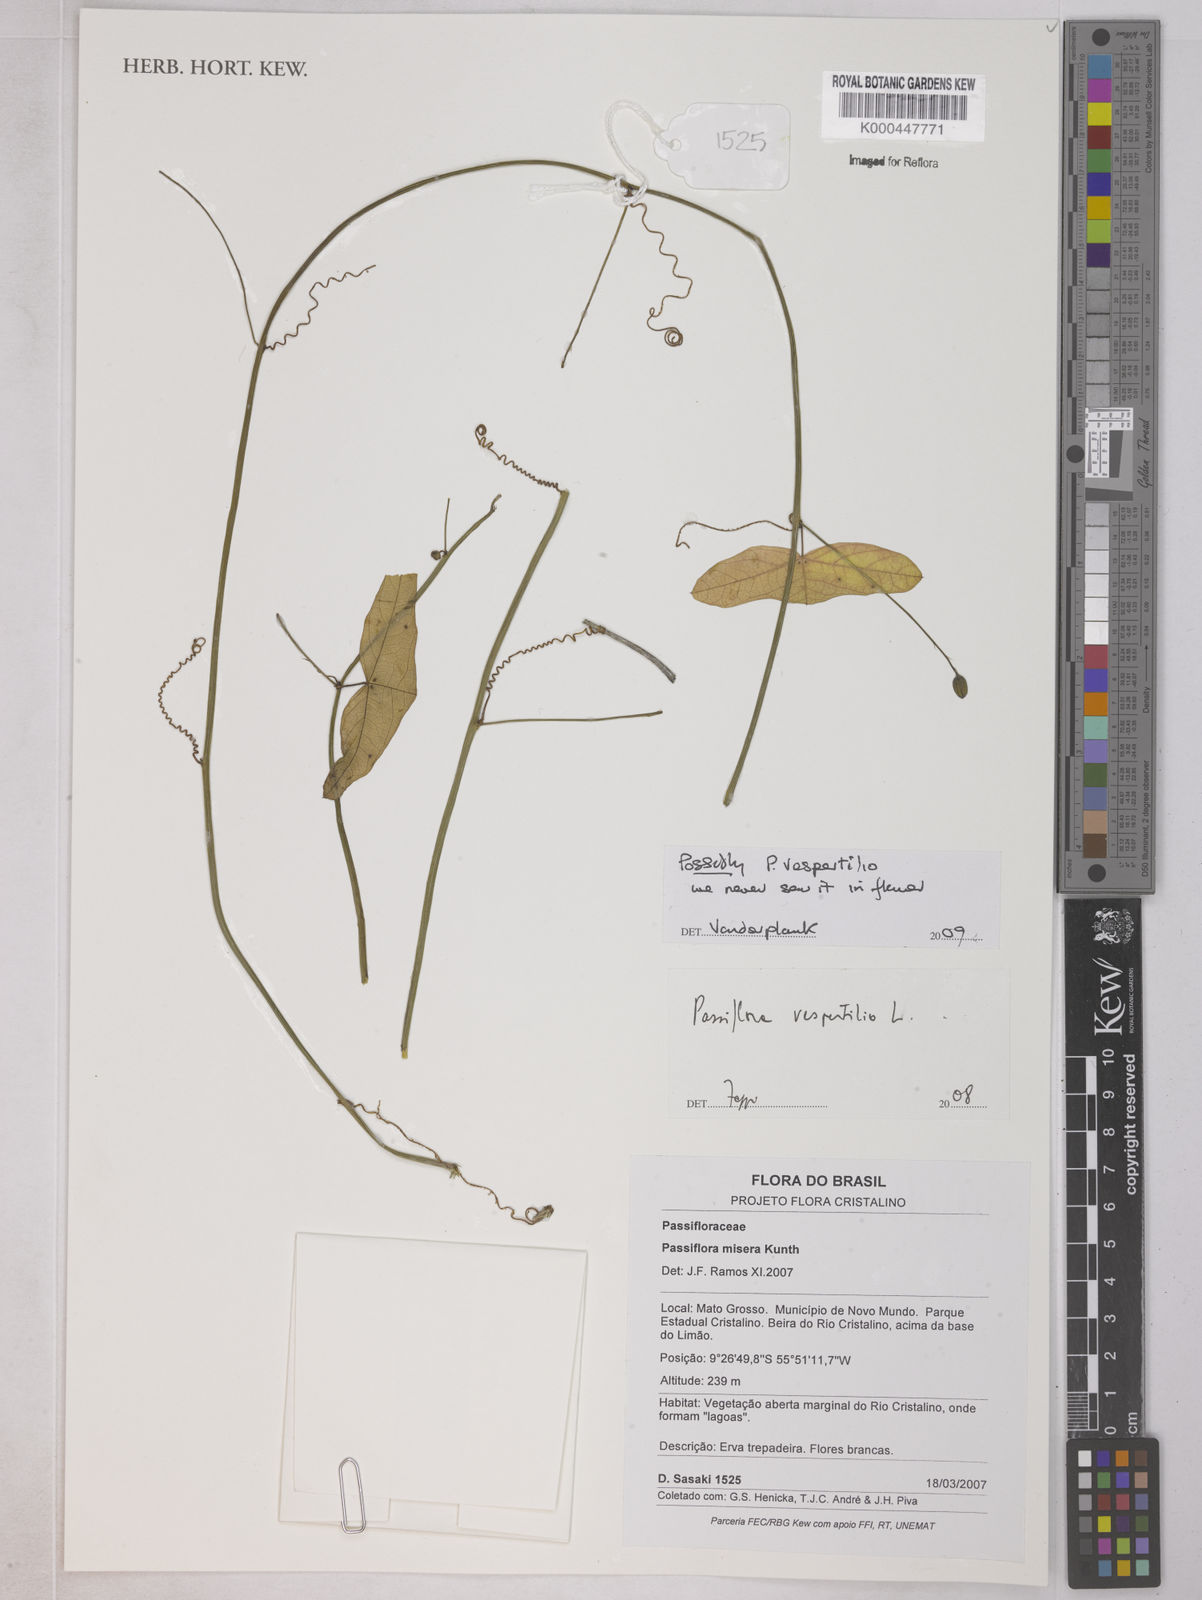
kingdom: Plantae
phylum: Tracheophyta
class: Magnoliopsida
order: Malpighiales
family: Passifloraceae
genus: Passiflora
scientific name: Passiflora vespertilio
